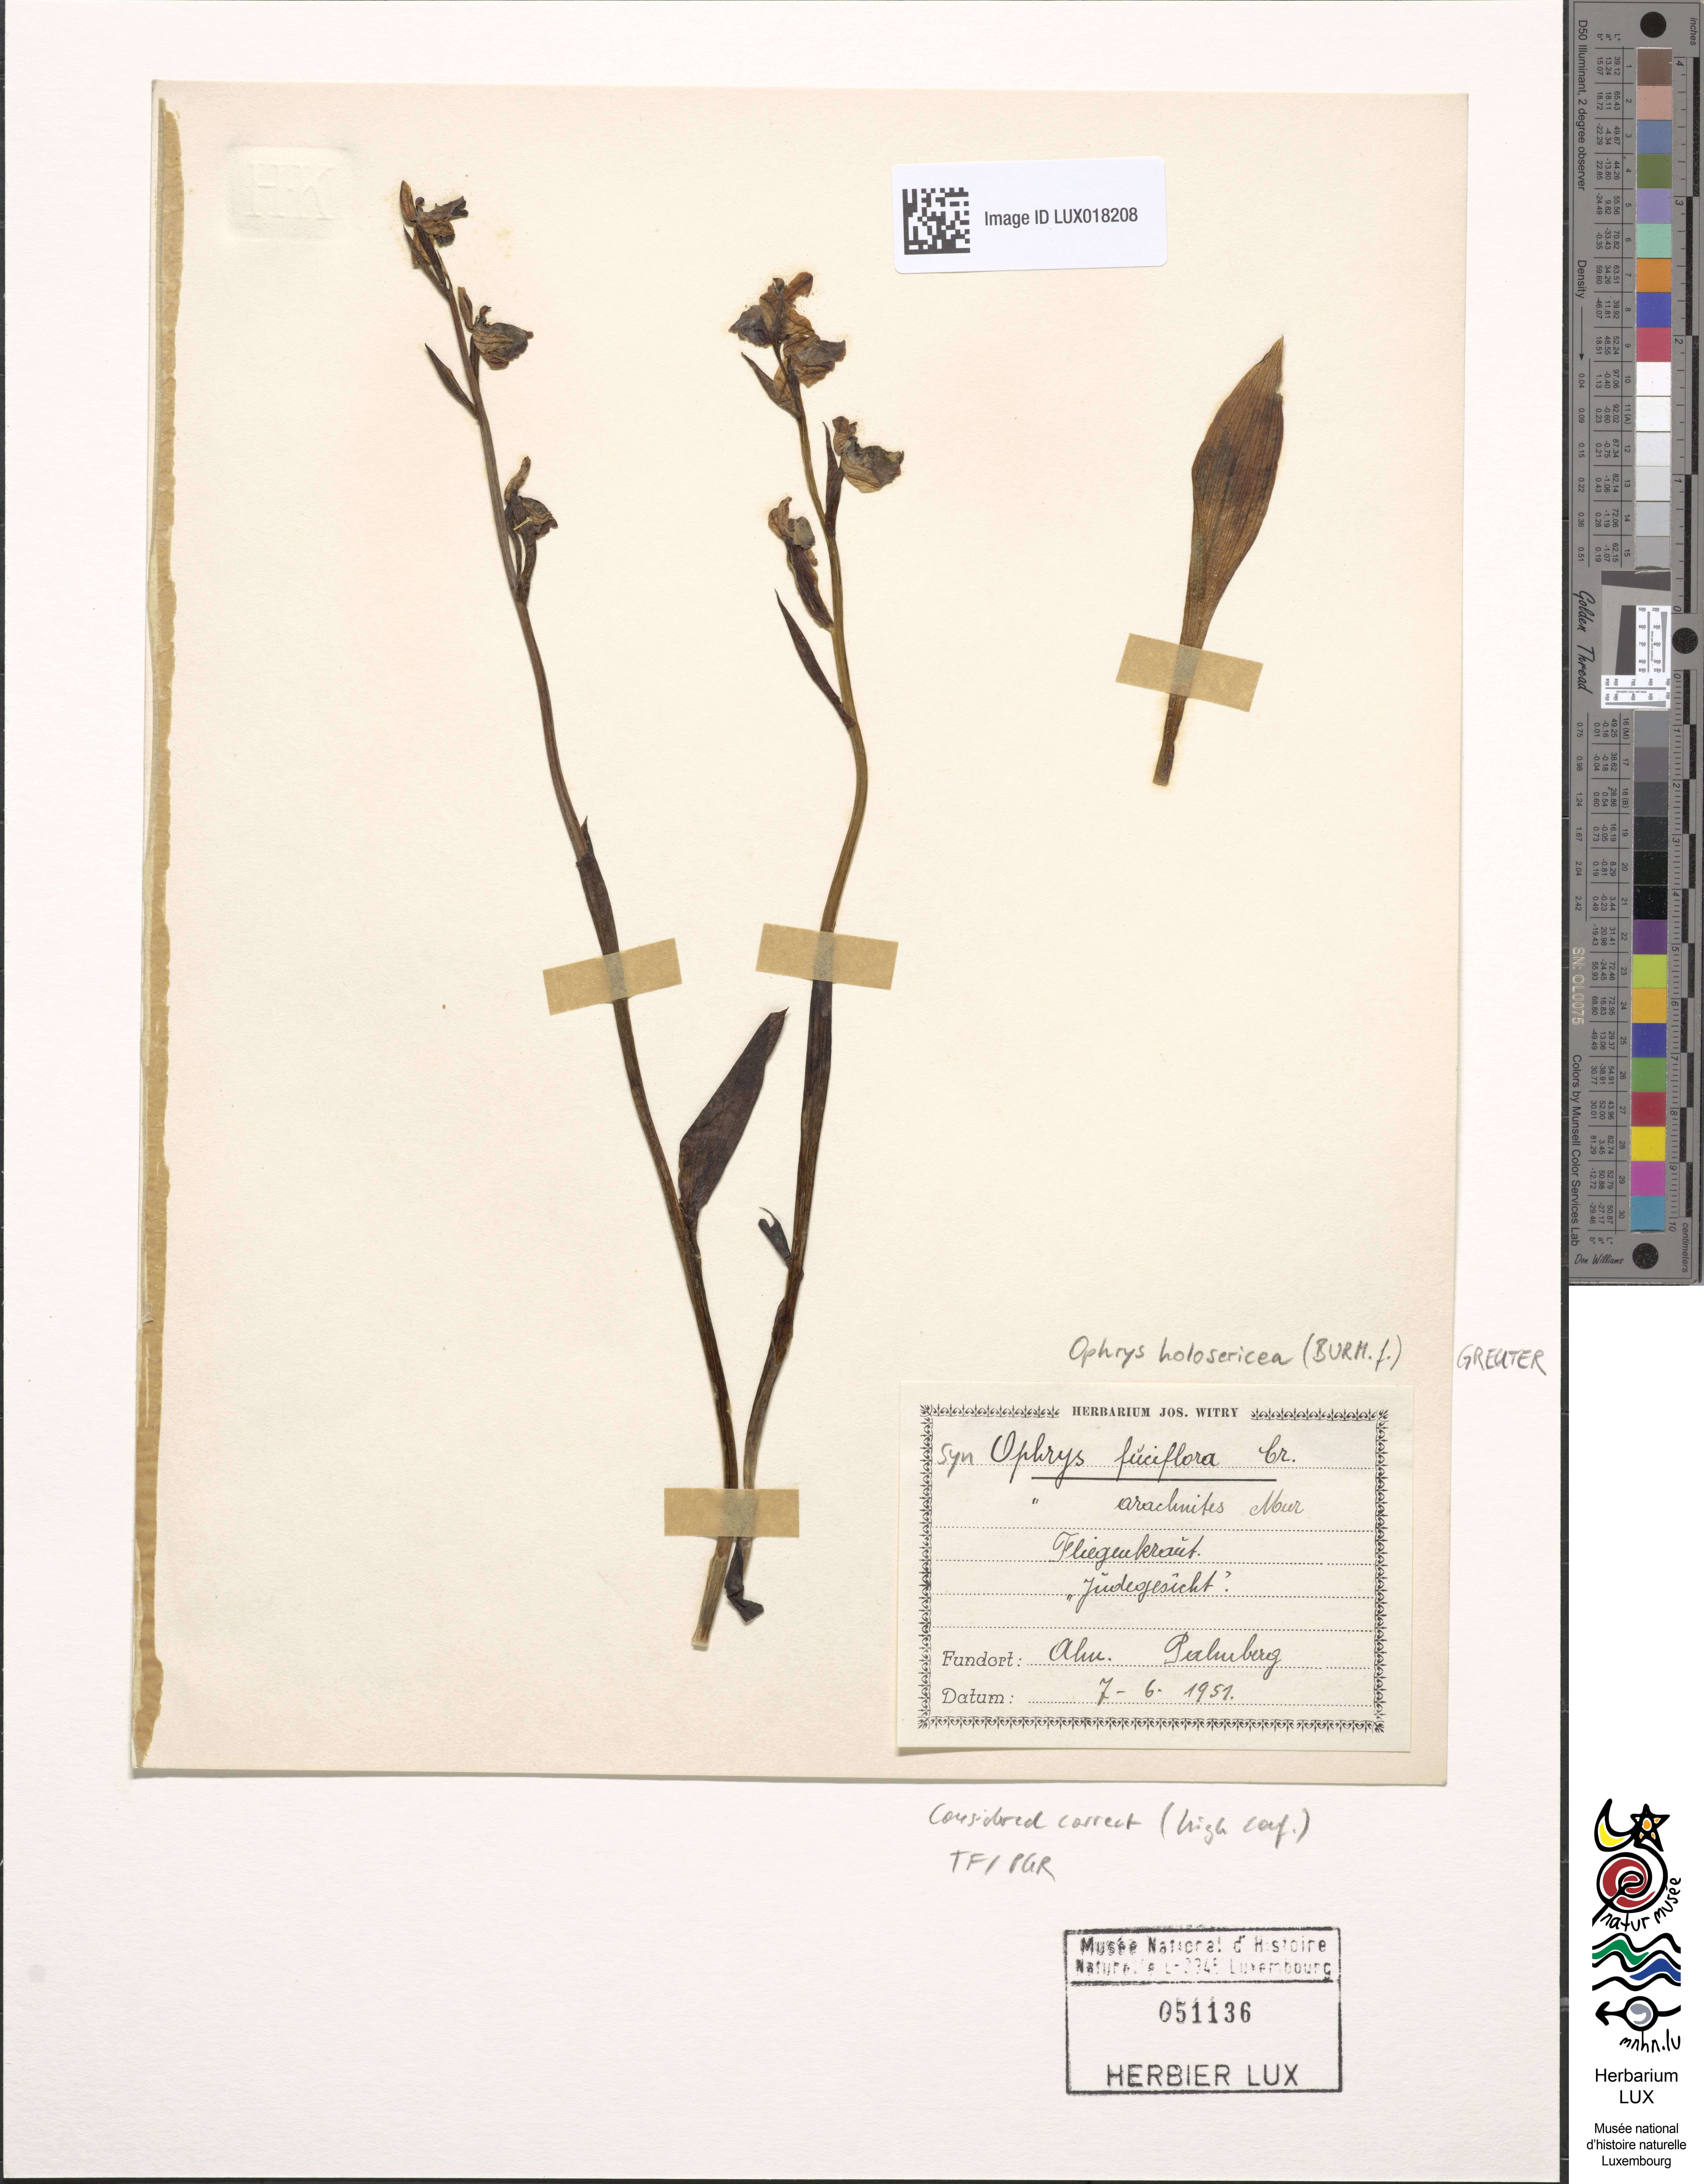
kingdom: Plantae
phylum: Tracheophyta
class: Liliopsida
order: Asparagales
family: Orchidaceae
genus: Ophrys
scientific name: Ophrys holosericea
